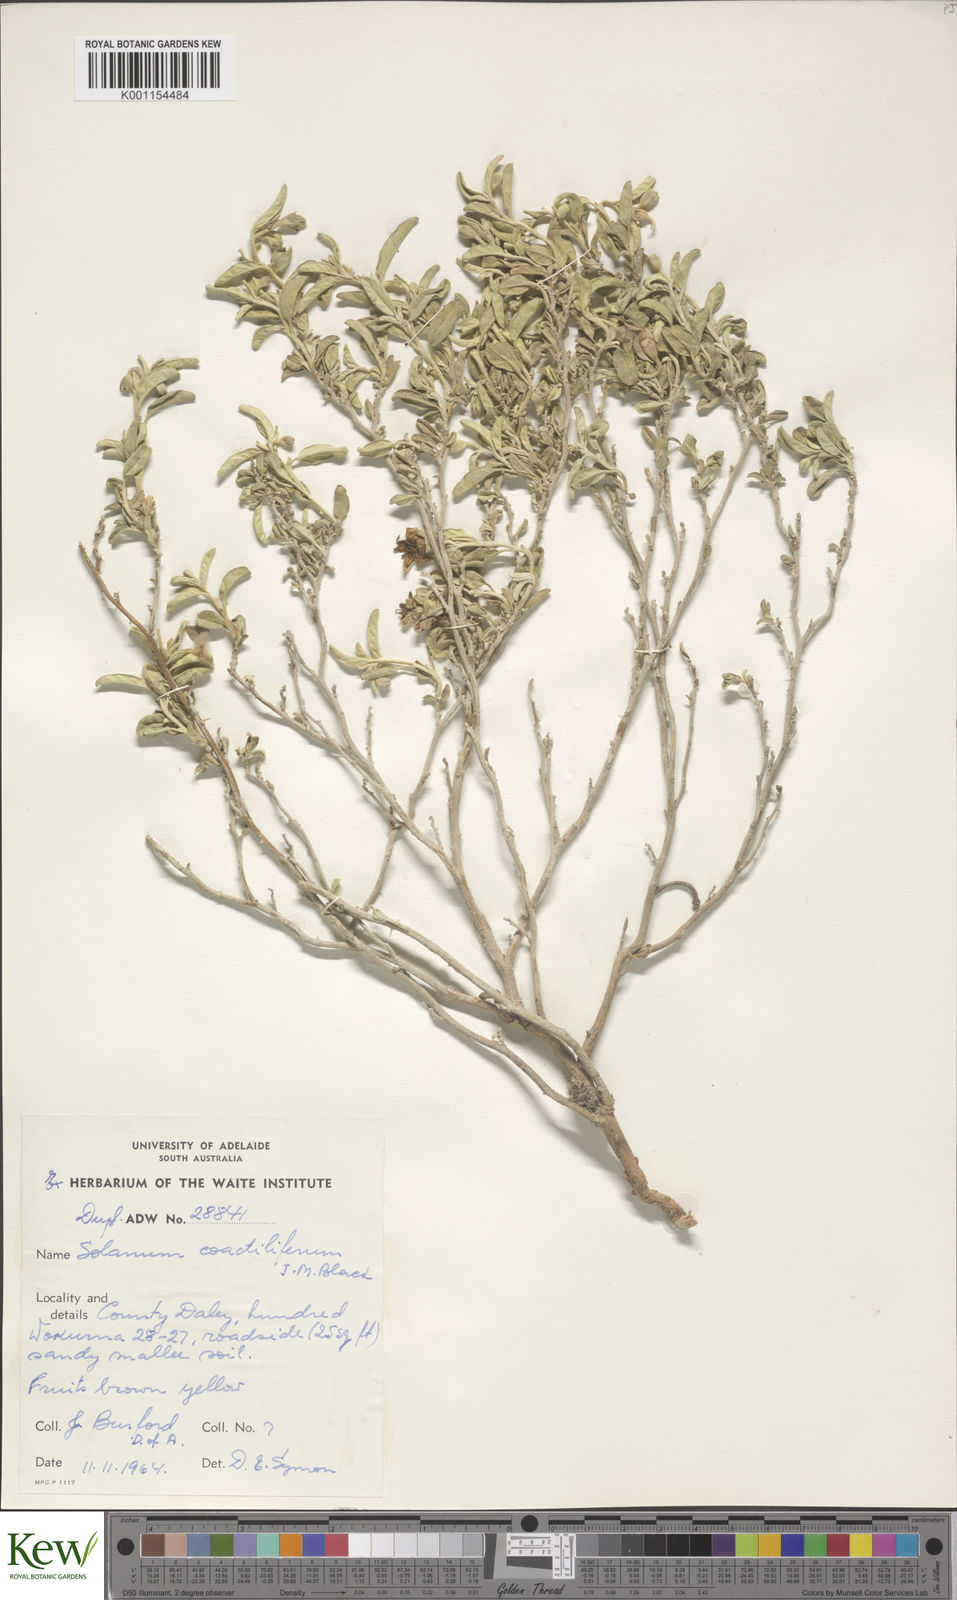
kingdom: Plantae
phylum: Tracheophyta
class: Magnoliopsida
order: Solanales
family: Solanaceae
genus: Solanum
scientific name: Solanum coactiliferum
